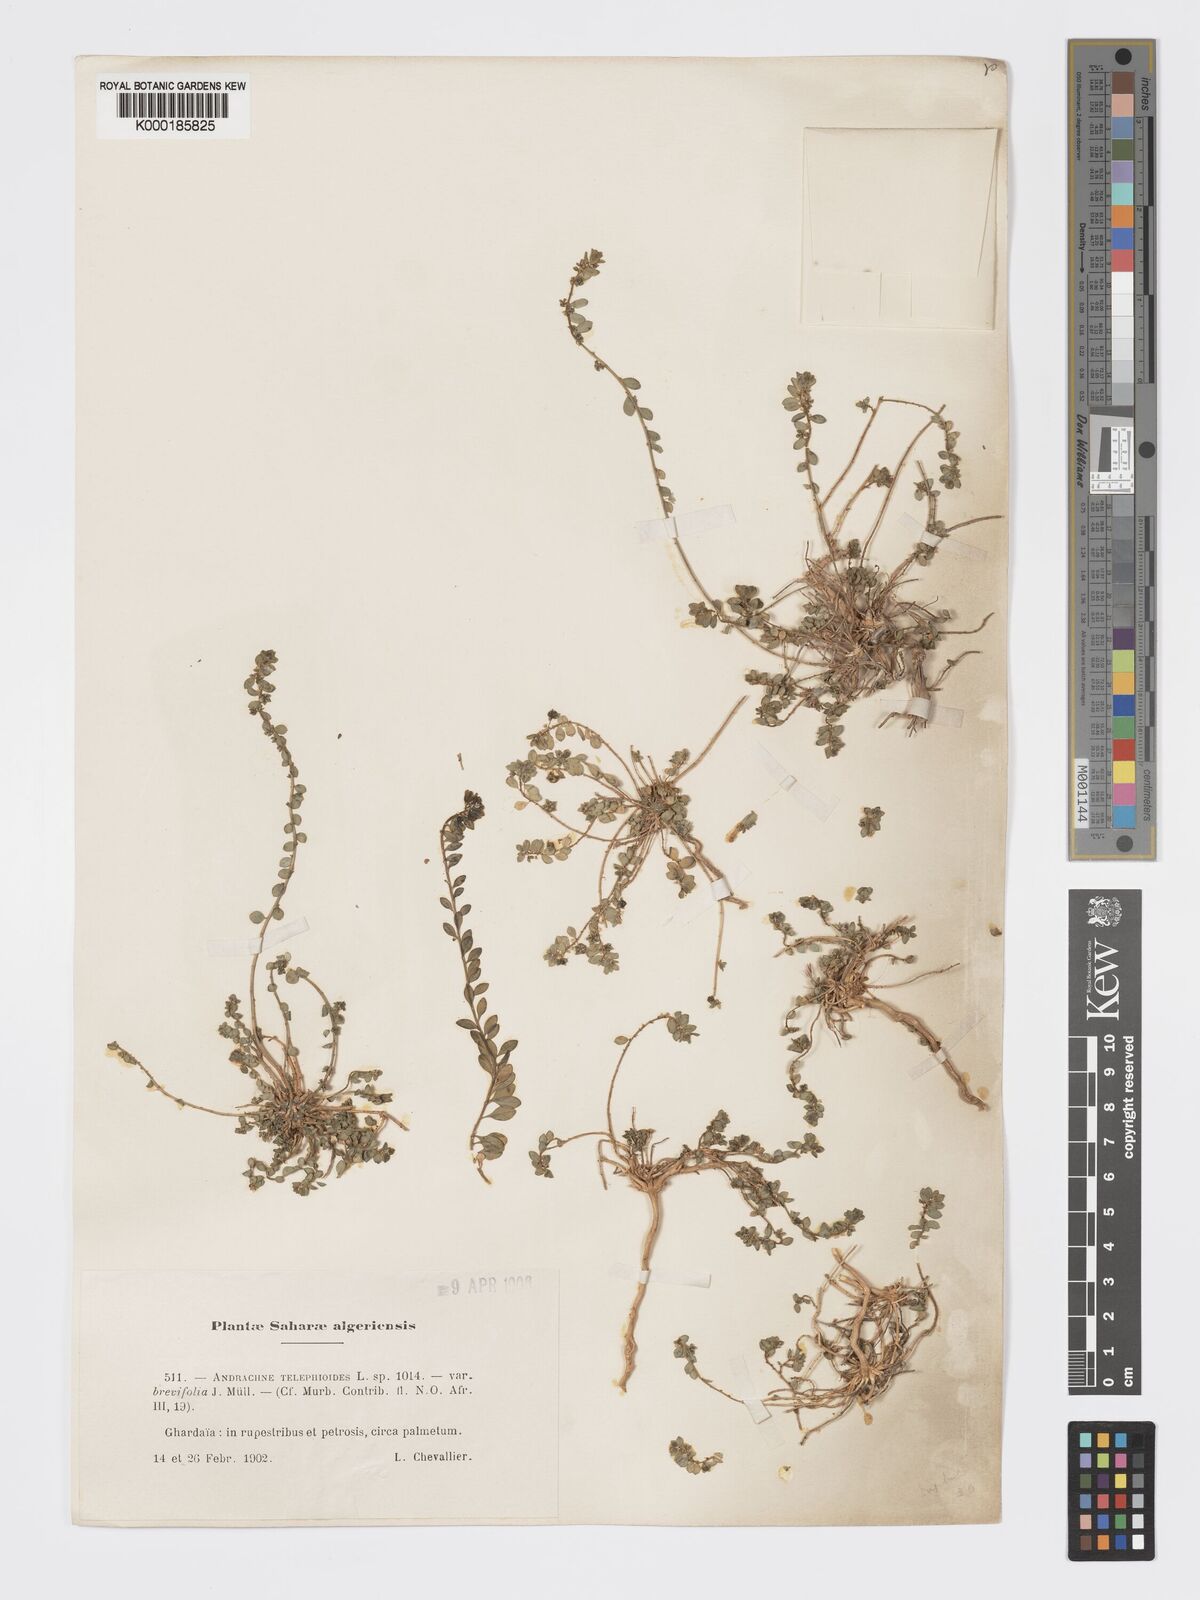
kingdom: Plantae
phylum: Tracheophyta
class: Magnoliopsida
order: Malpighiales
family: Phyllanthaceae
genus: Andrachne
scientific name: Andrachne telephioides
